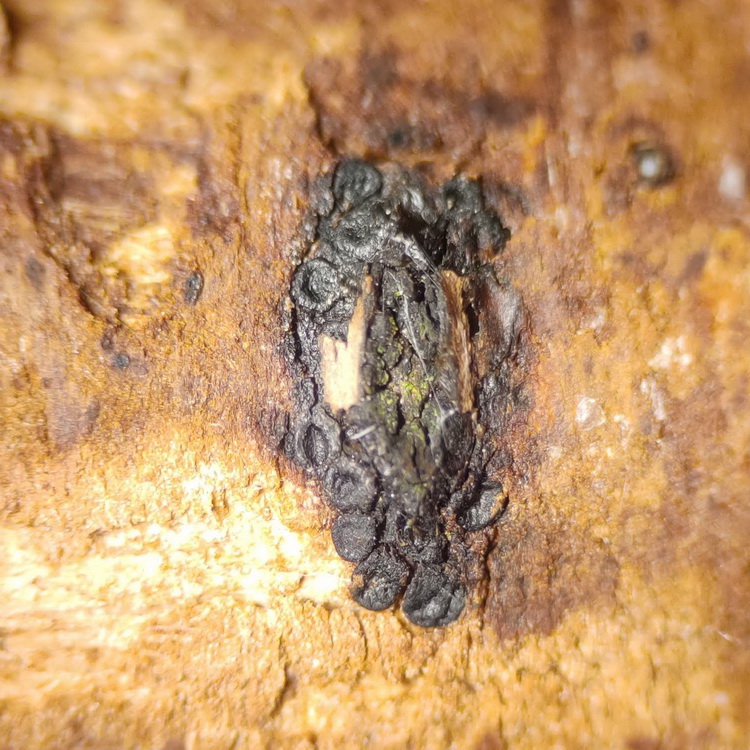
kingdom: Fungi
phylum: Ascomycota
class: Sordariomycetes
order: Calosphaeriales
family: Calosphaeriaceae
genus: Calosphaeria
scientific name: Calosphaeria pulchella
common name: smuk slyngkerne
